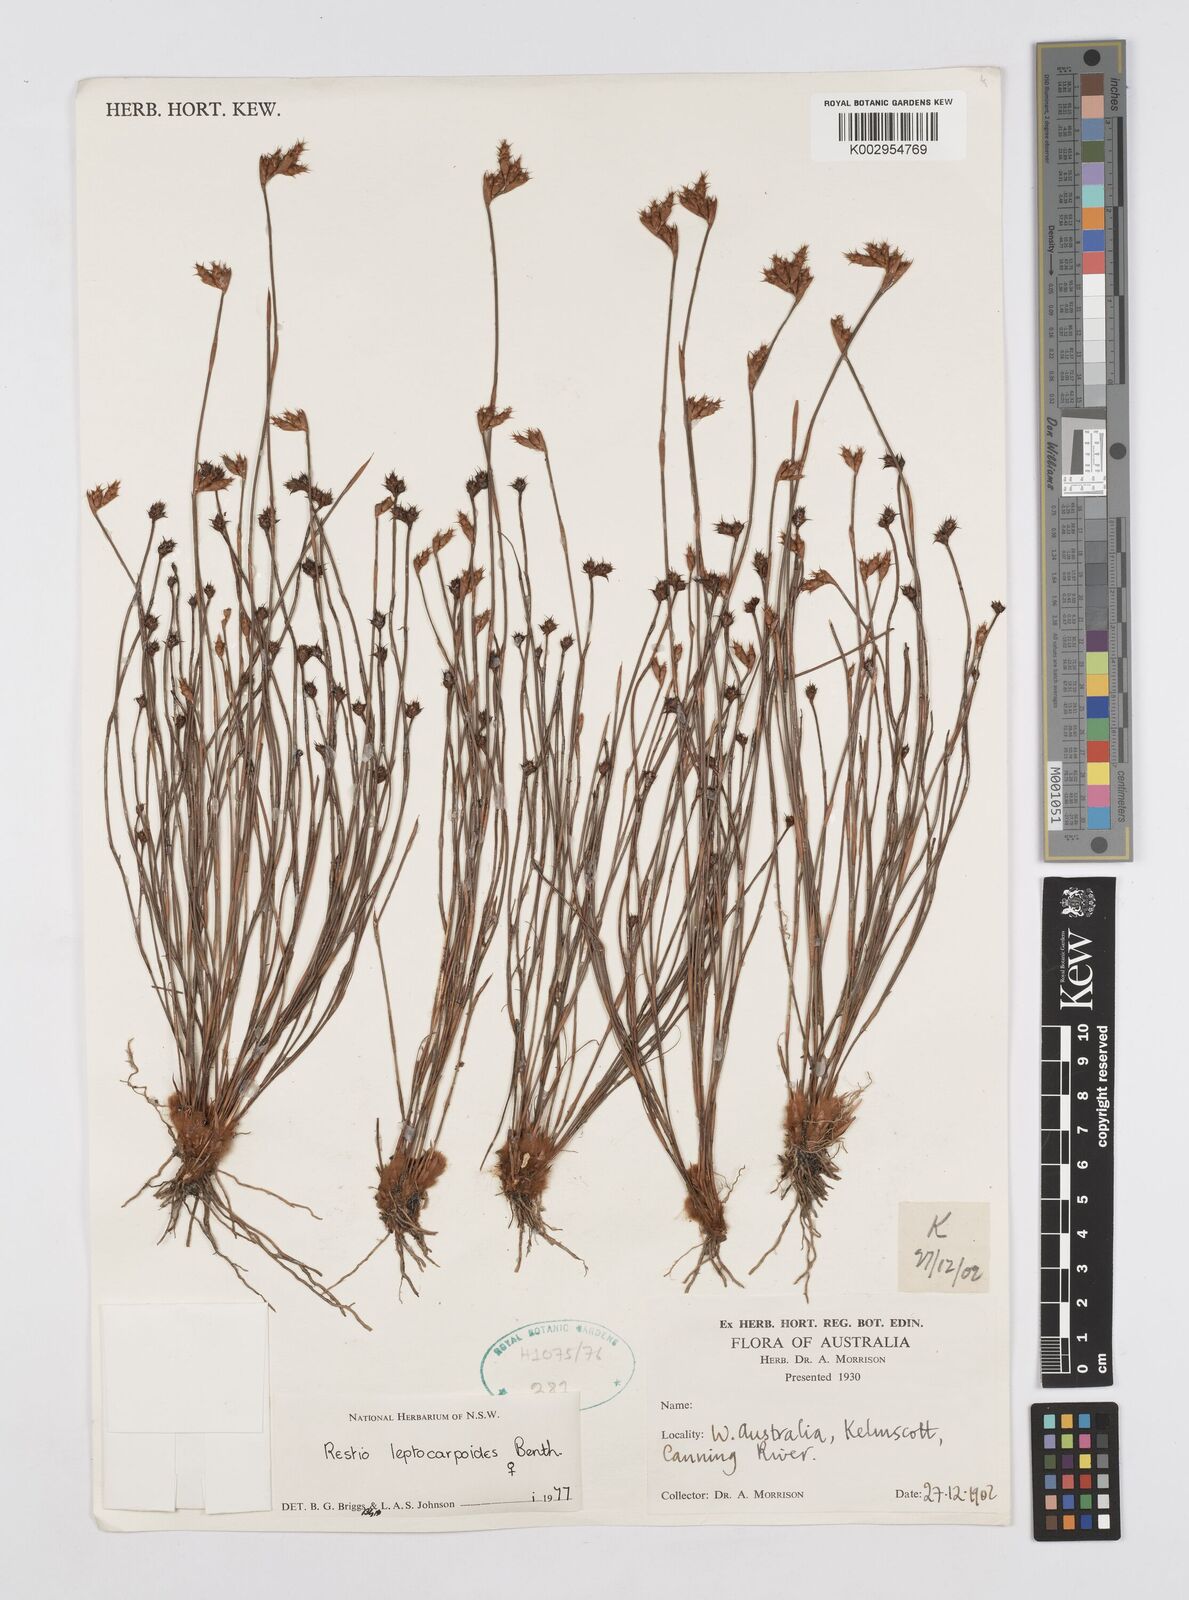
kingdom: Plantae
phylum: Tracheophyta
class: Liliopsida
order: Poales
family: Restionaceae
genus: Cytogonidium
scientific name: Cytogonidium leptocarpoides
